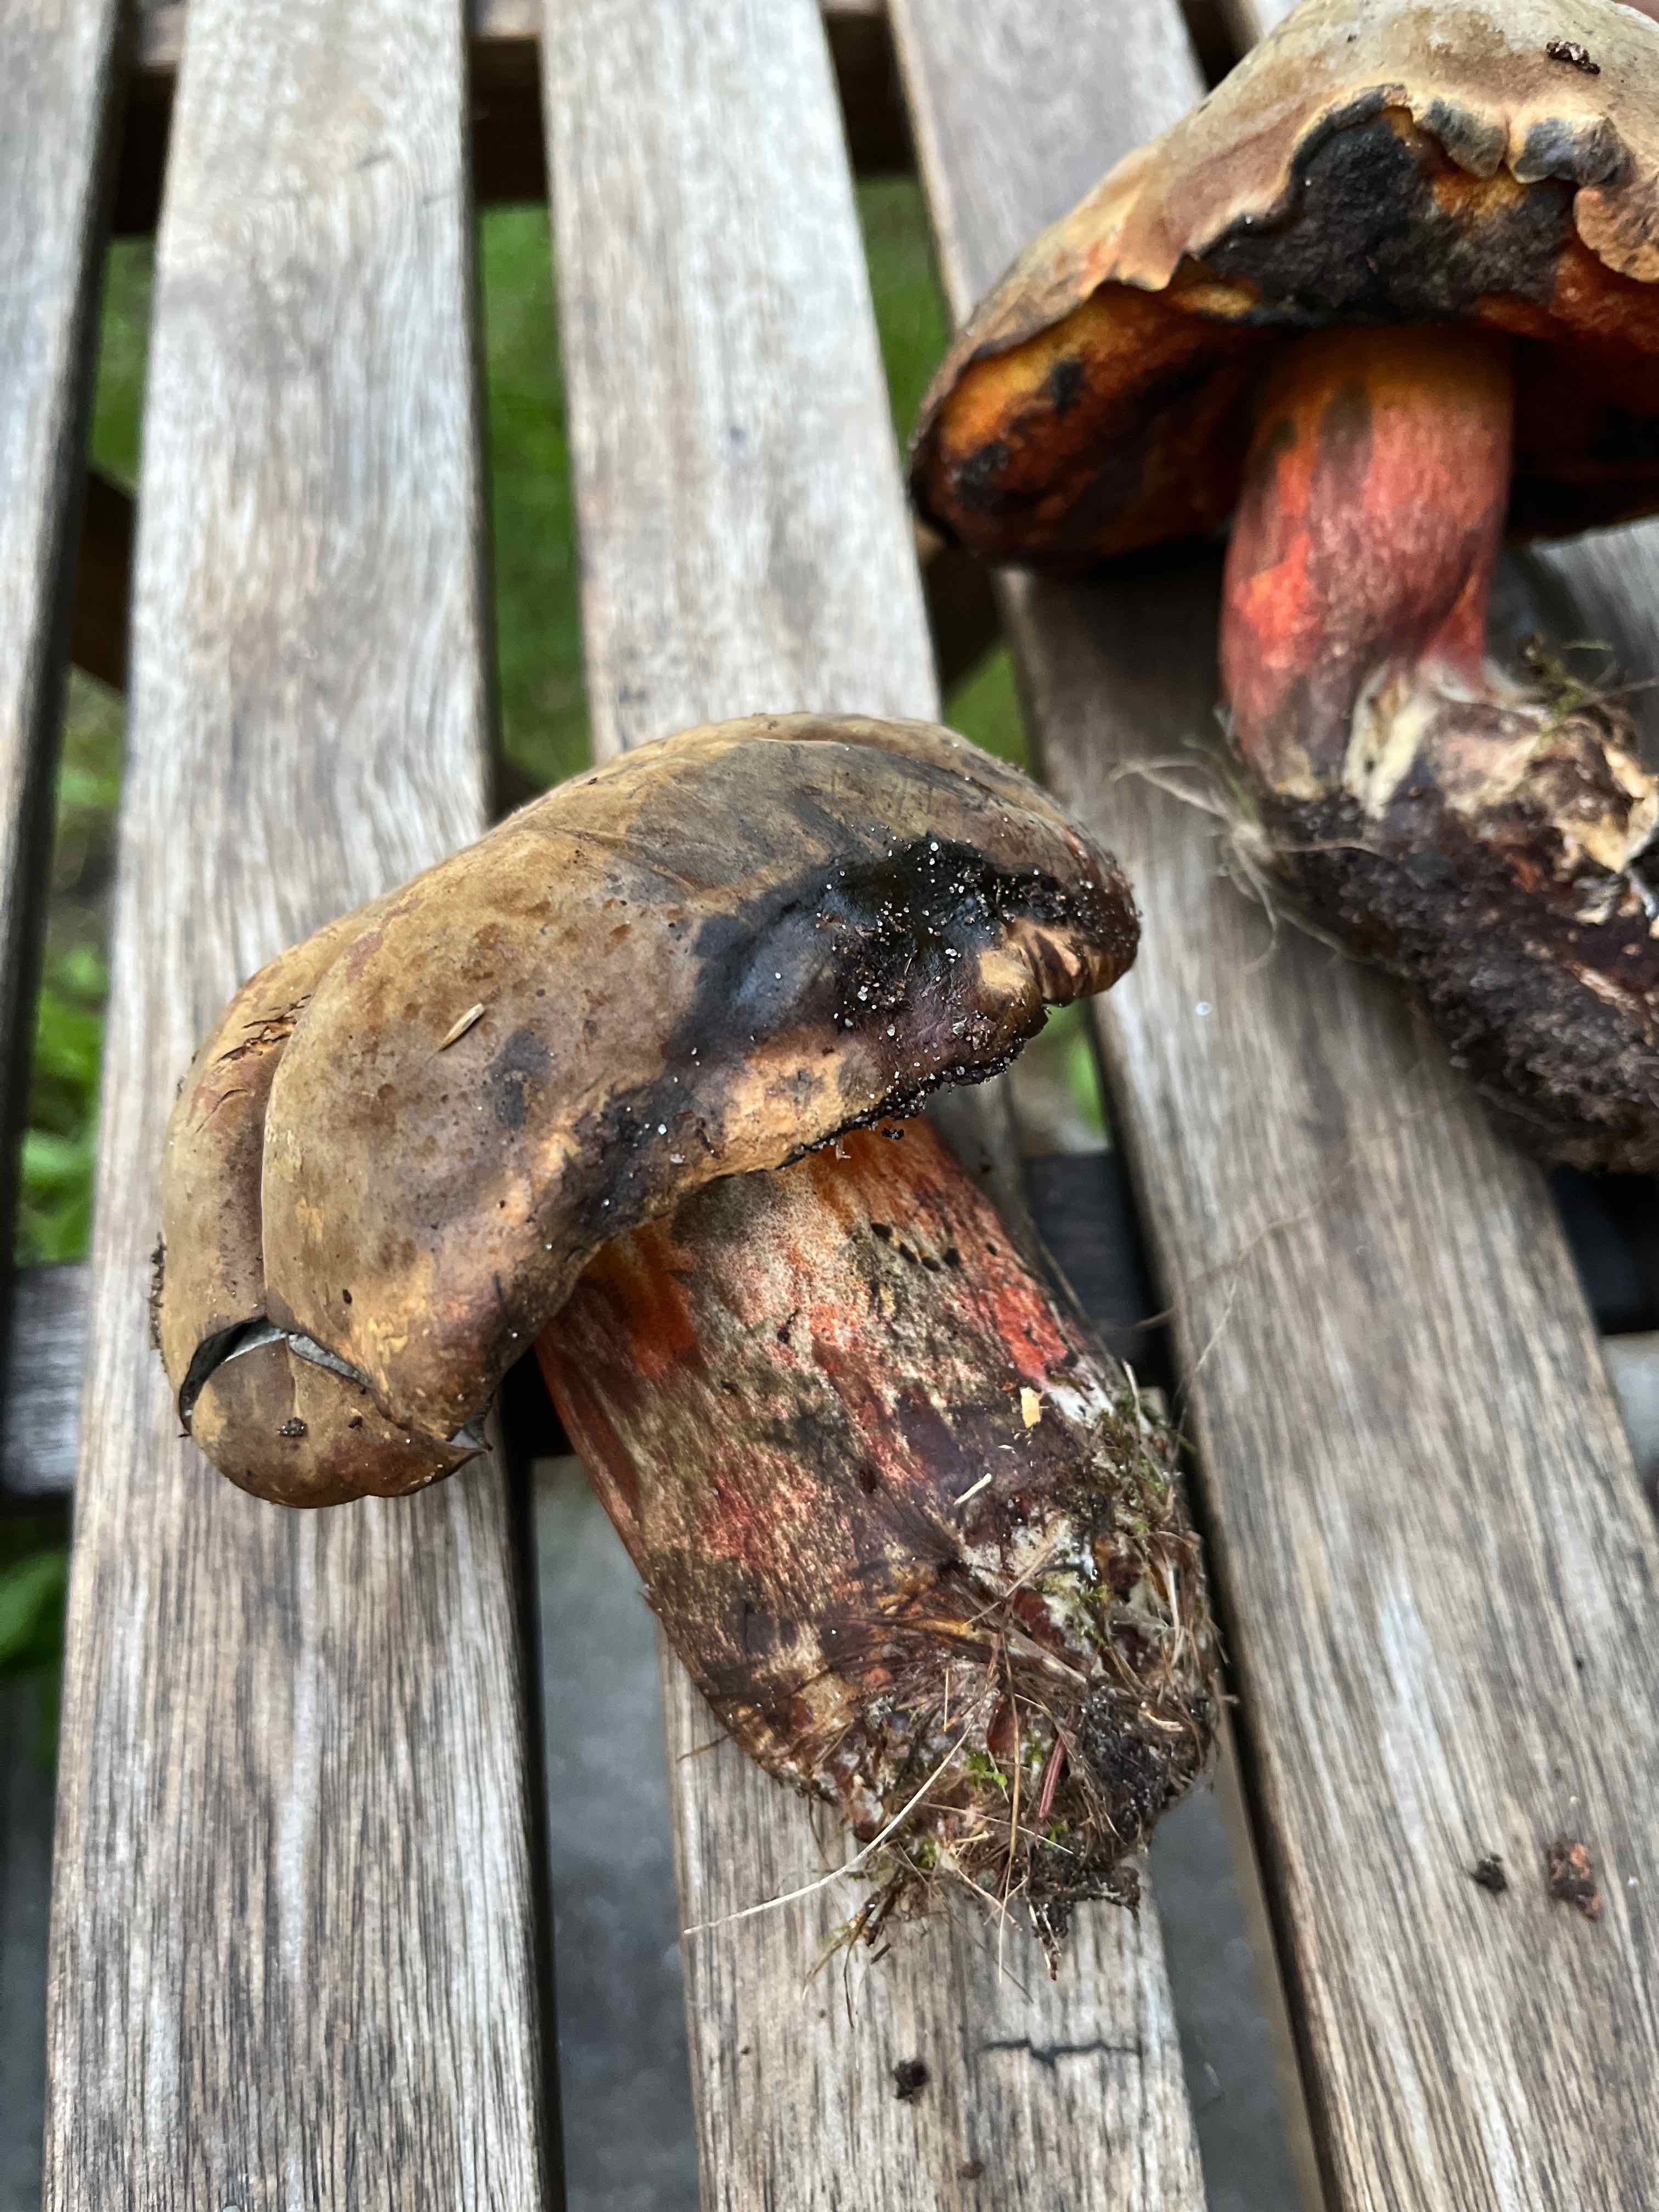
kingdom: Fungi
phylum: Basidiomycota
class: Agaricomycetes
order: Boletales
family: Boletaceae
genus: Neoboletus
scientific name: Neoboletus erythropus
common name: punktstokket indigorørhat
